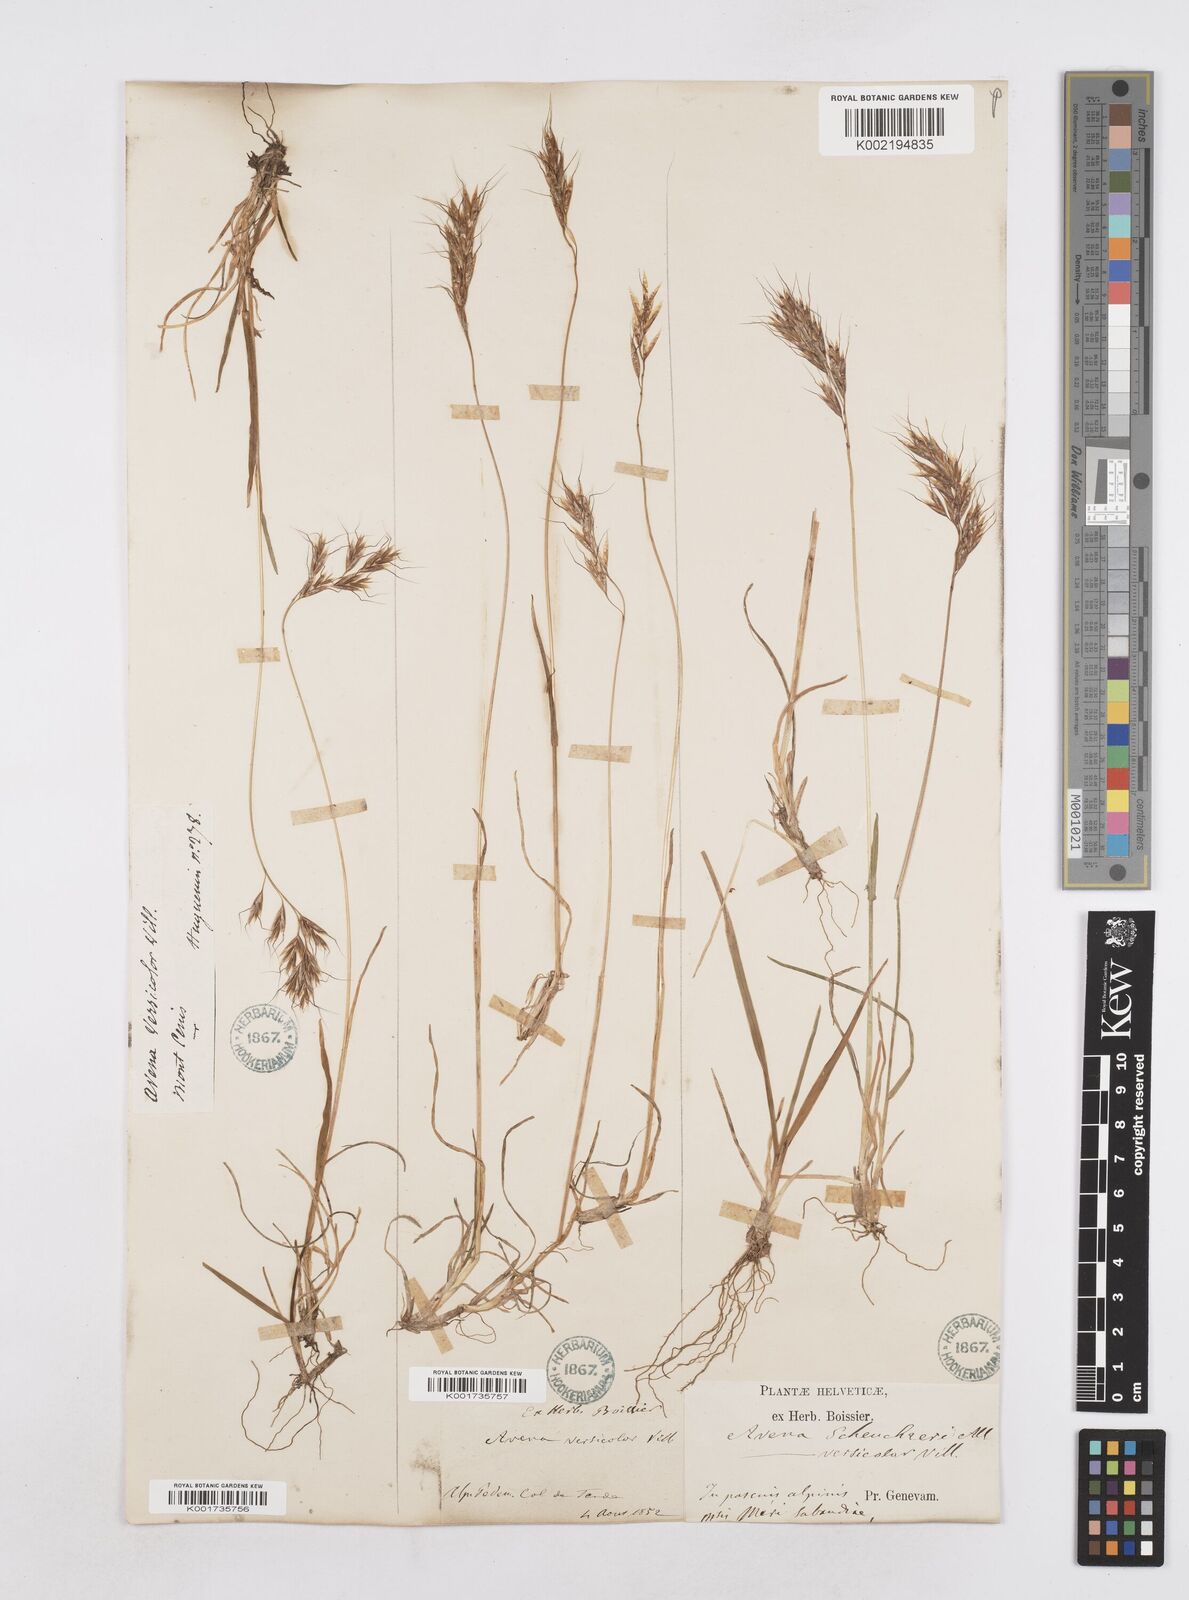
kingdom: Plantae
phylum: Tracheophyta
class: Liliopsida
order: Poales
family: Poaceae
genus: Helictotrichon
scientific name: Helictotrichon
